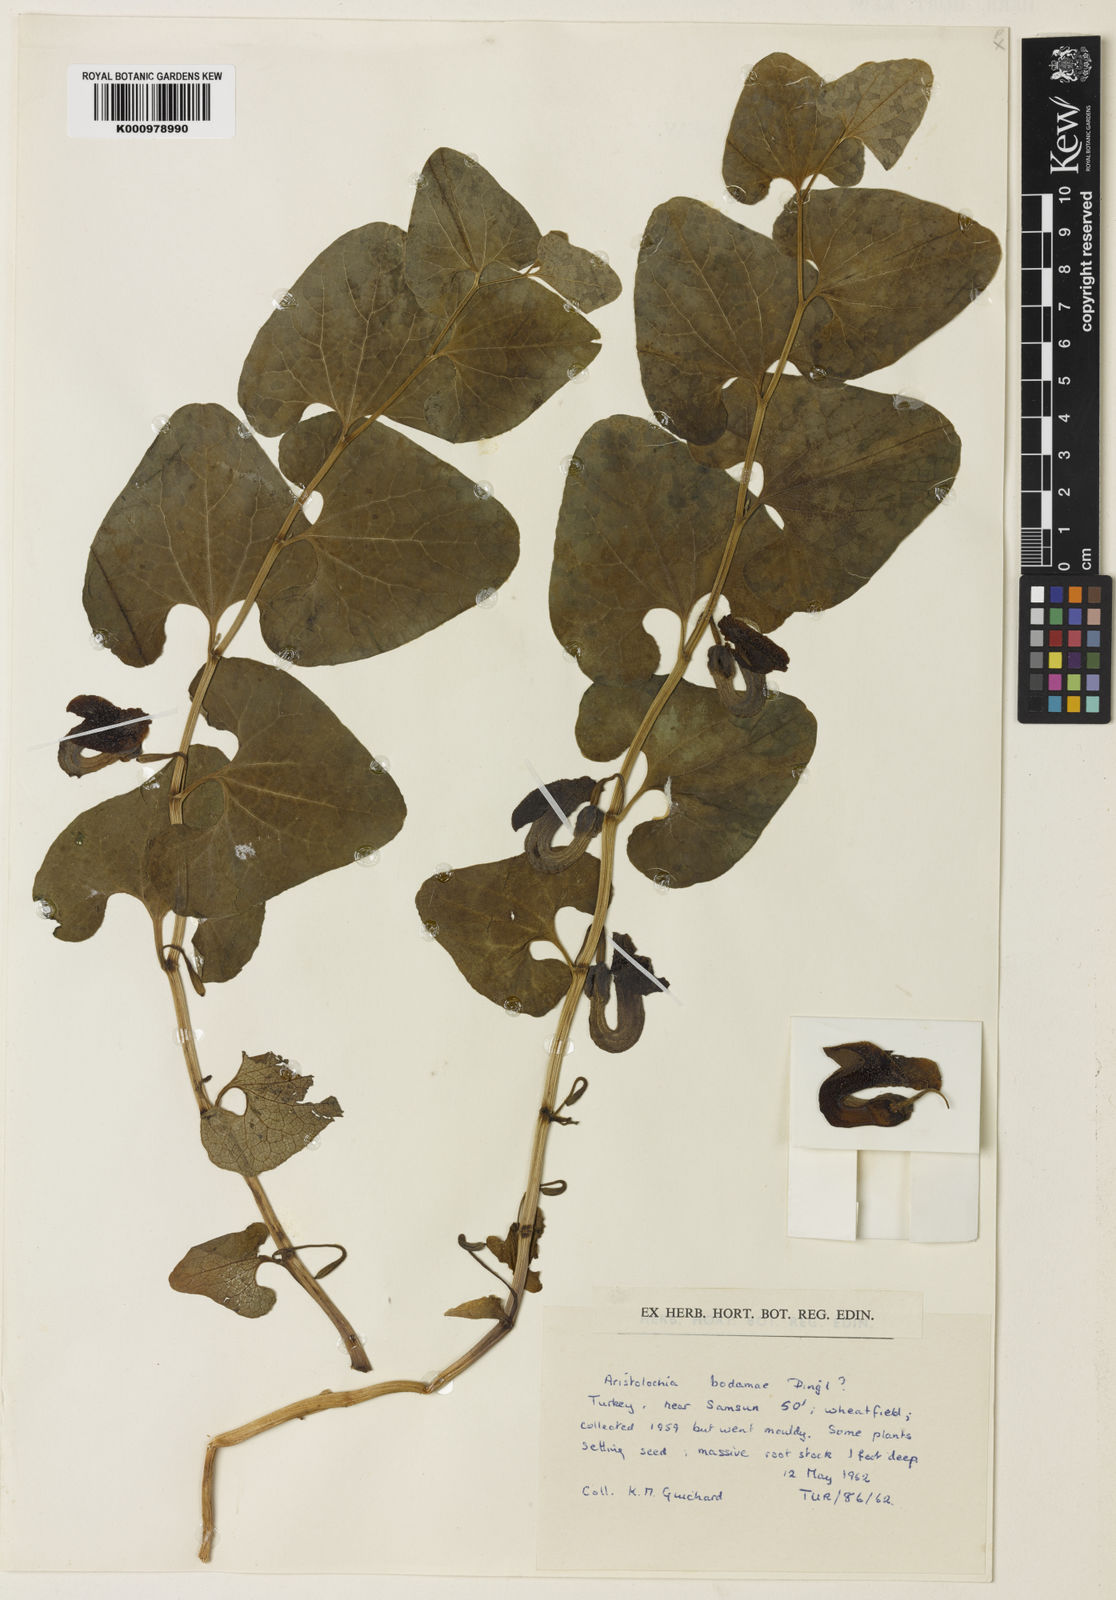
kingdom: Plantae
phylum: Tracheophyta
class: Magnoliopsida
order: Piperales
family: Aristolochiaceae
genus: Aristolochia
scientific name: Aristolochia bodamae
